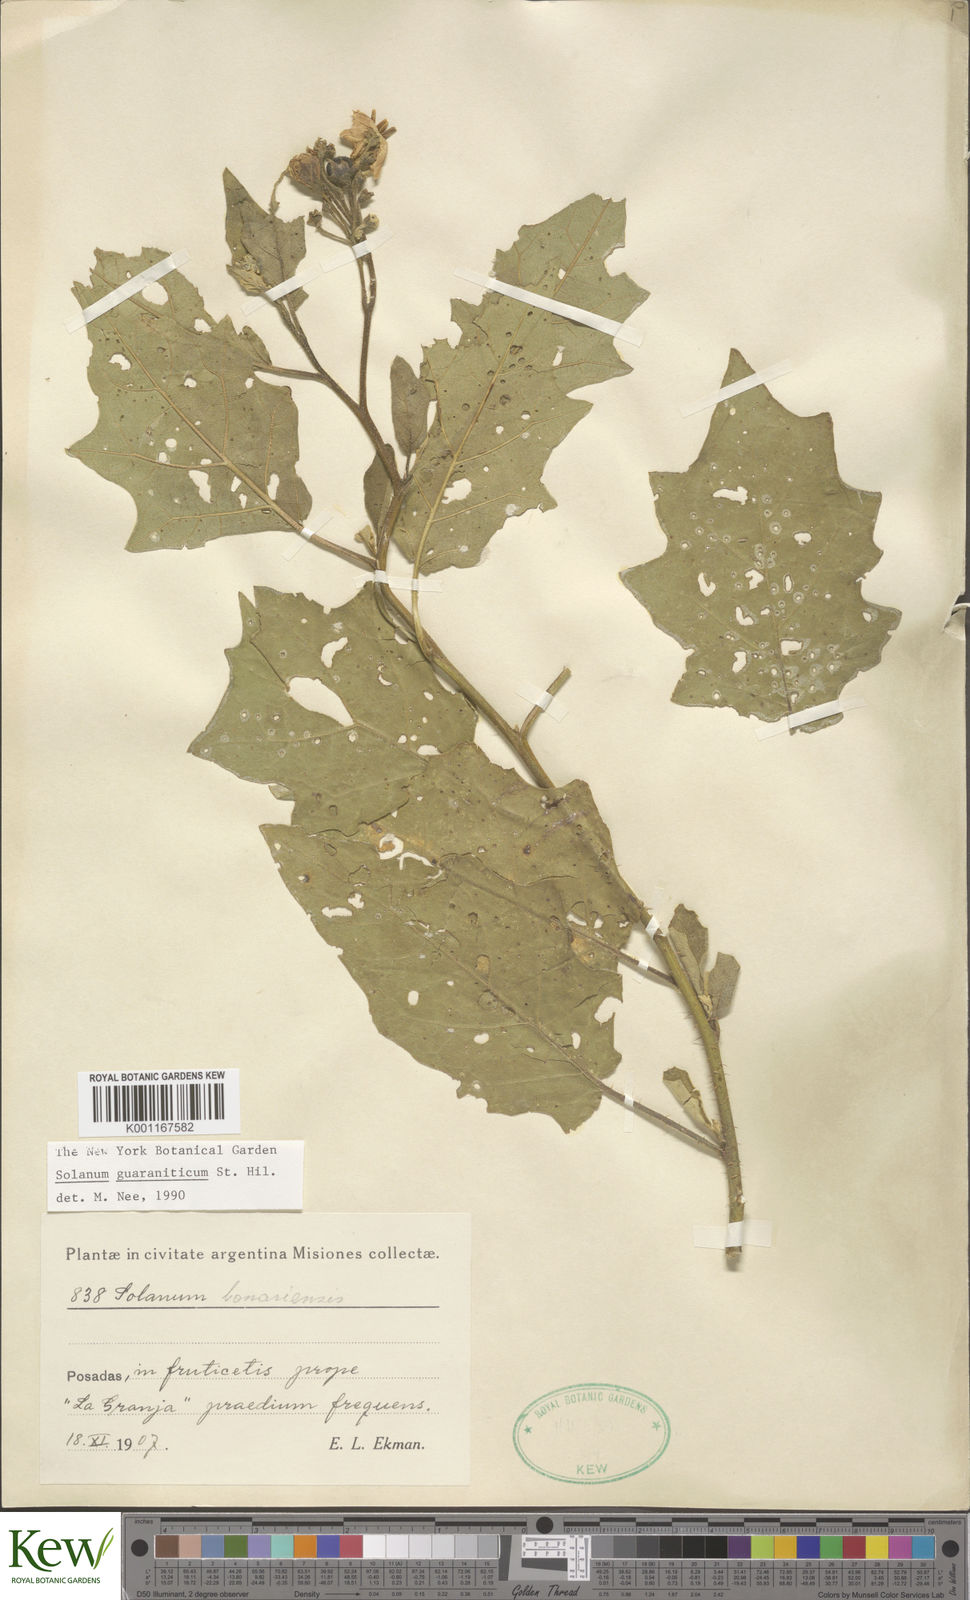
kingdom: Plantae
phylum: Tracheophyta
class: Magnoliopsida
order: Solanales
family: Solanaceae
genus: Solanum
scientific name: Solanum guaraniticum
